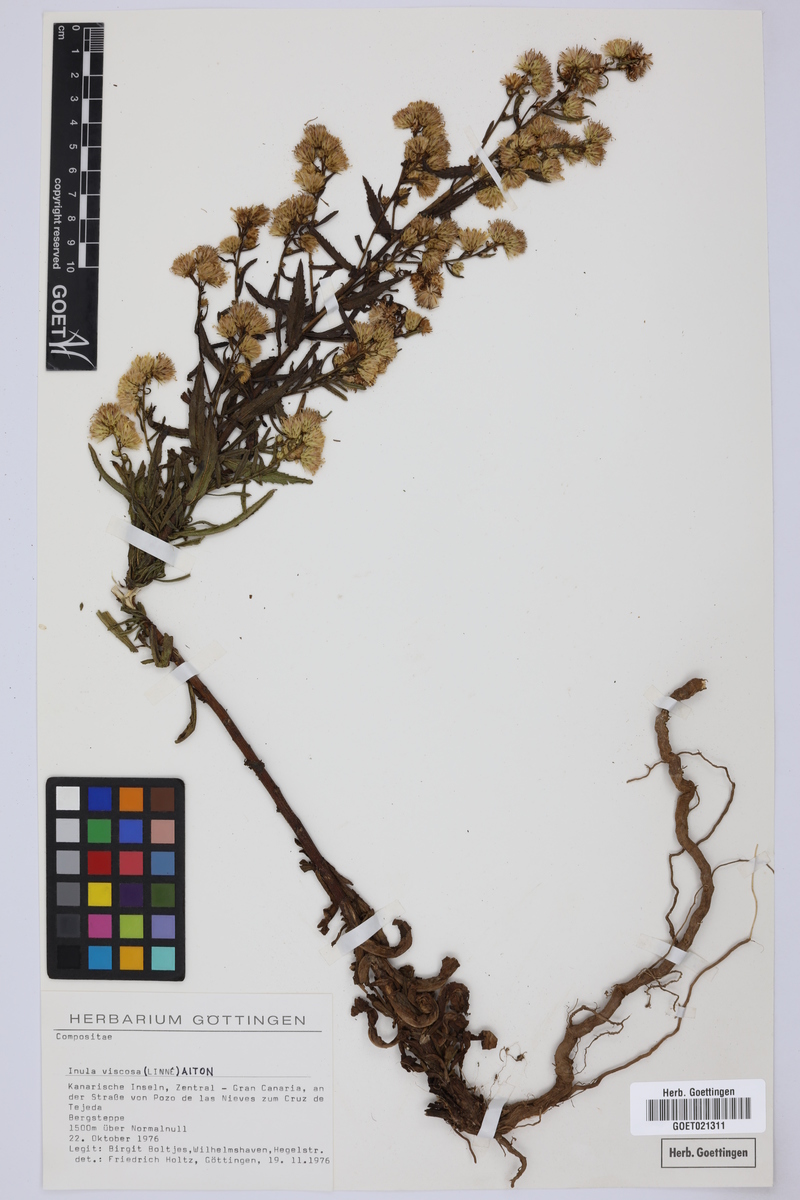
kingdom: Plantae
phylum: Tracheophyta
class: Magnoliopsida
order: Asterales
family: Asteraceae
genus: Dittrichia
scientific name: Dittrichia viscosa
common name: Woody fleabane
